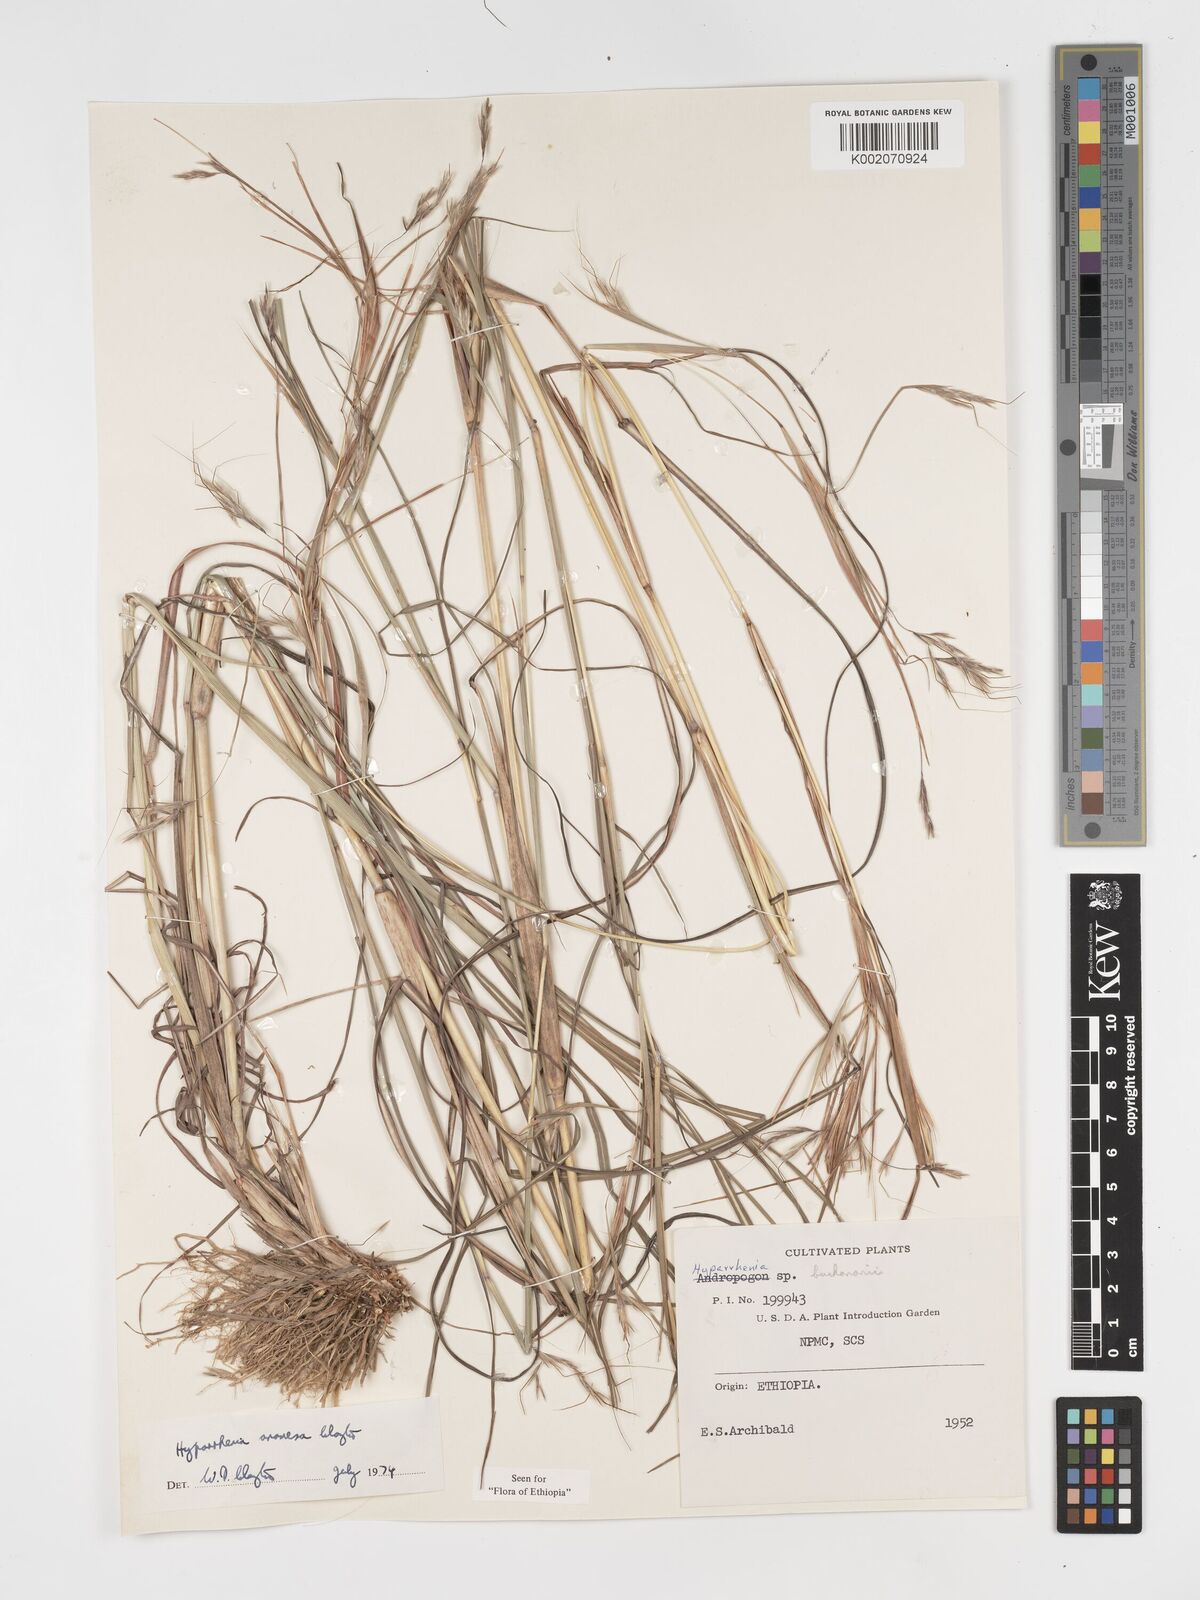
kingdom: Plantae
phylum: Tracheophyta
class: Liliopsida
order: Poales
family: Poaceae
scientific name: Poaceae
